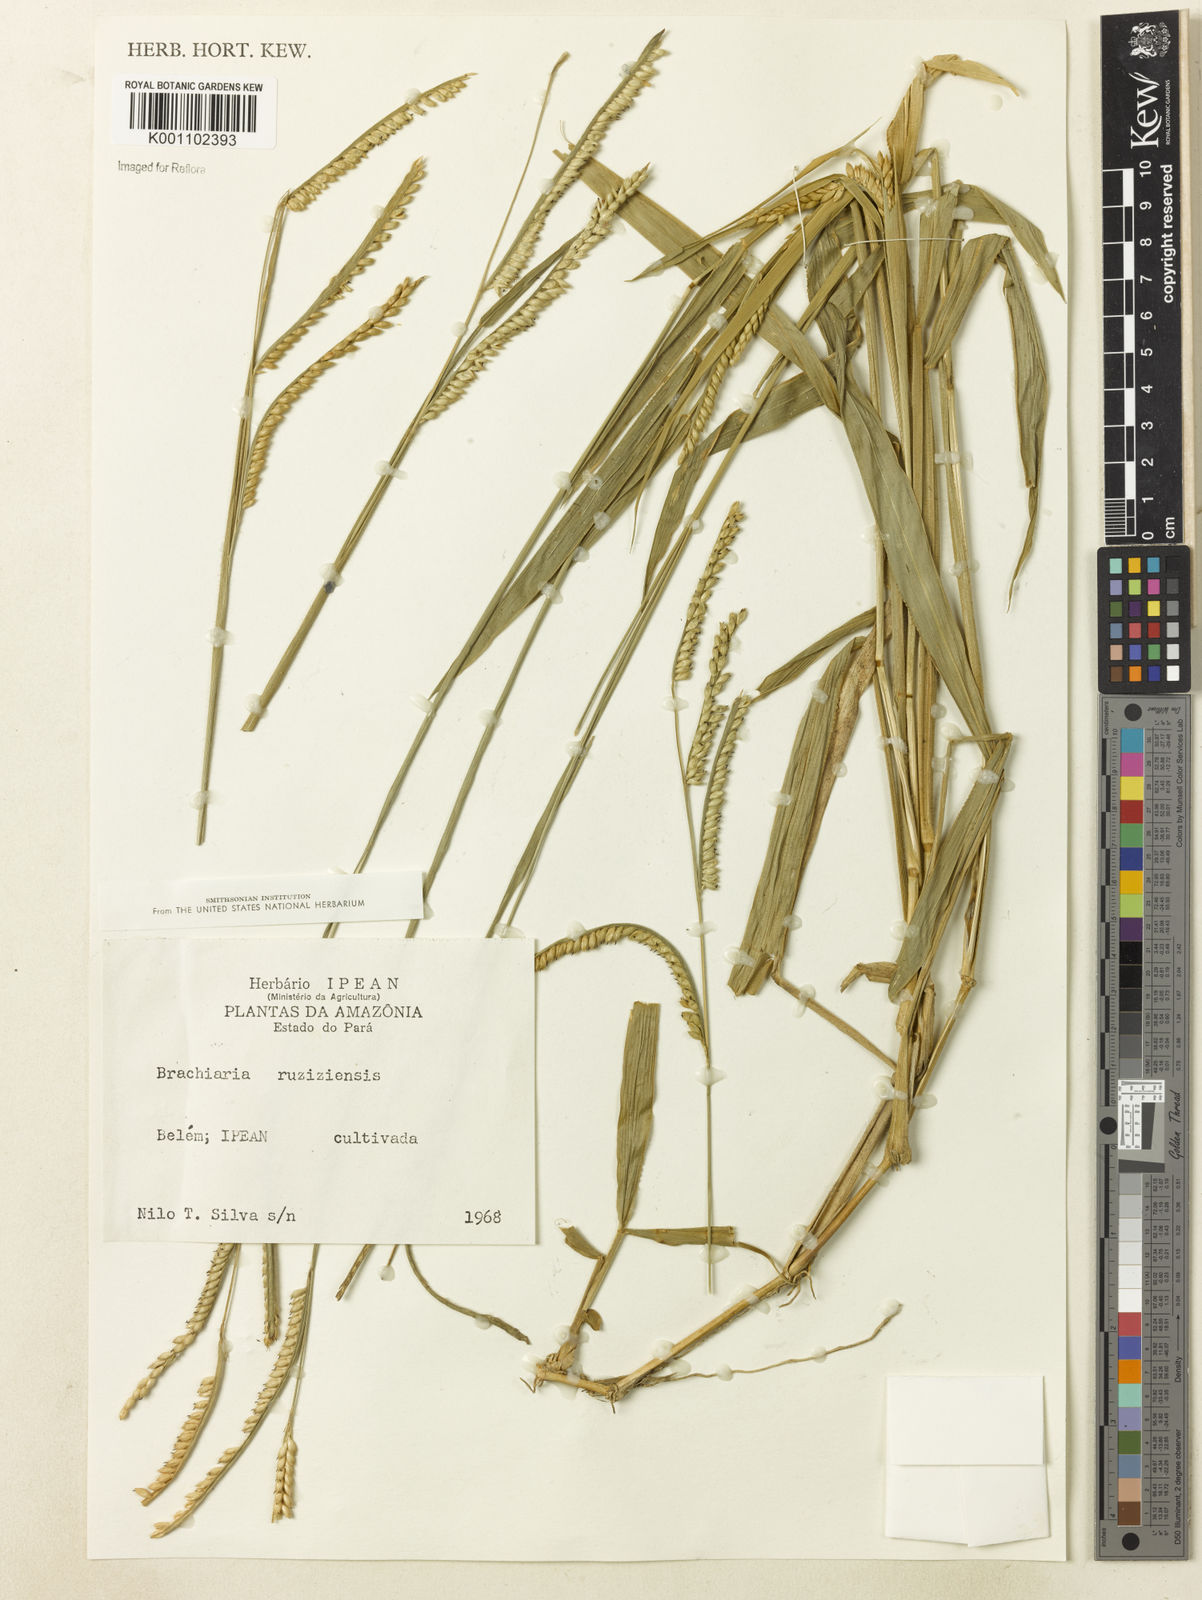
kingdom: Plantae
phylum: Tracheophyta
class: Liliopsida
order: Poales
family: Poaceae
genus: Urochloa
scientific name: Urochloa eminii
